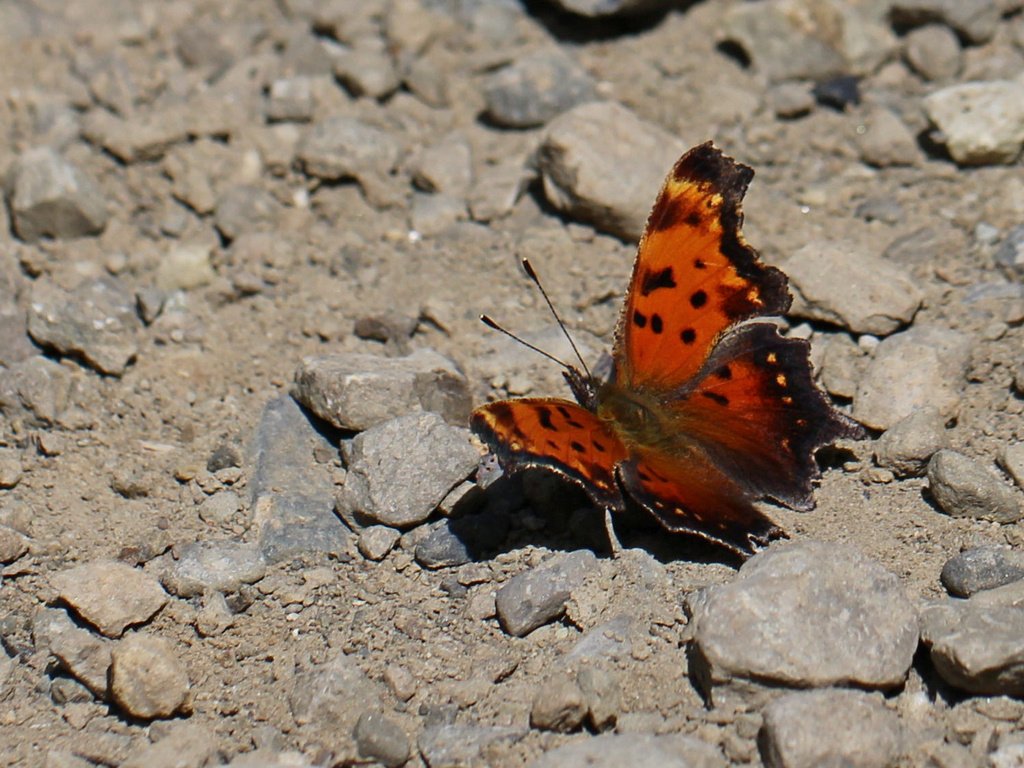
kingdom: Animalia
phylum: Arthropoda
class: Insecta
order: Lepidoptera
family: Nymphalidae
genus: Polygonia
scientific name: Polygonia
